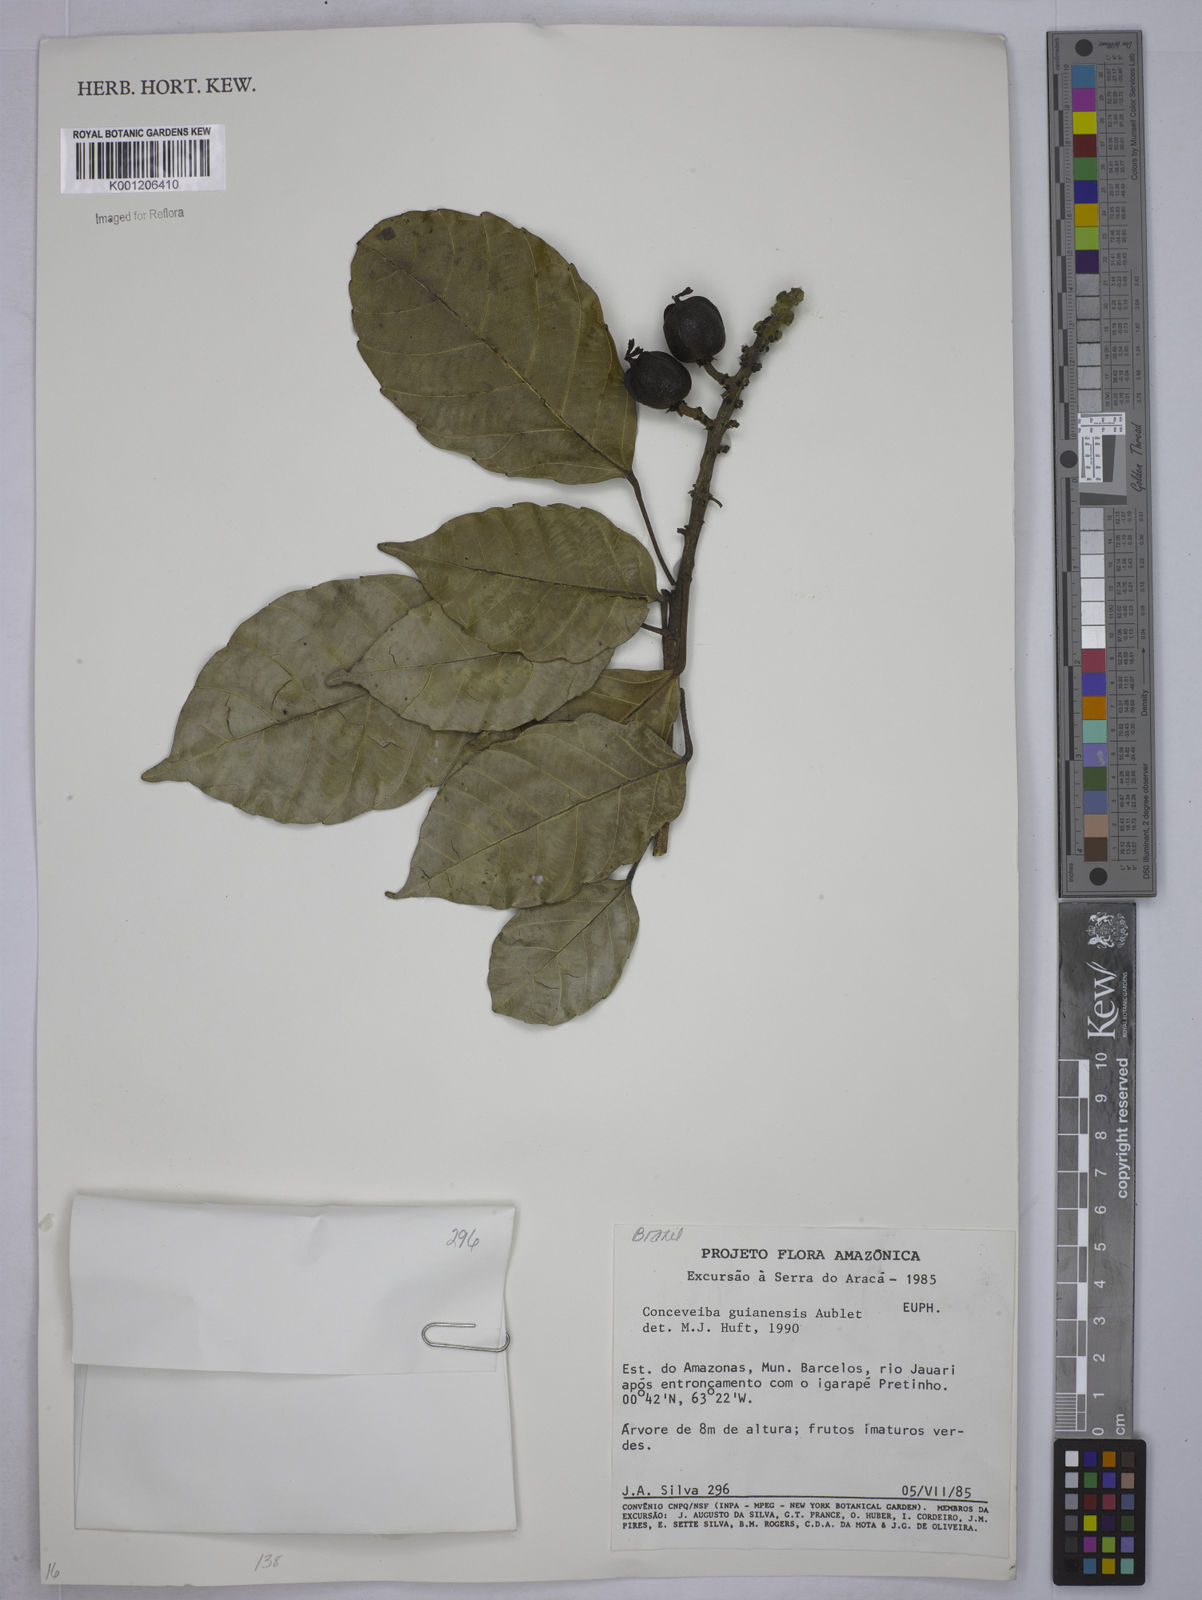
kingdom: Plantae
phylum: Tracheophyta
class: Magnoliopsida
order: Malpighiales
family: Euphorbiaceae
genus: Conceveiba
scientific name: Conceveiba guianensis
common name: Poatoru
